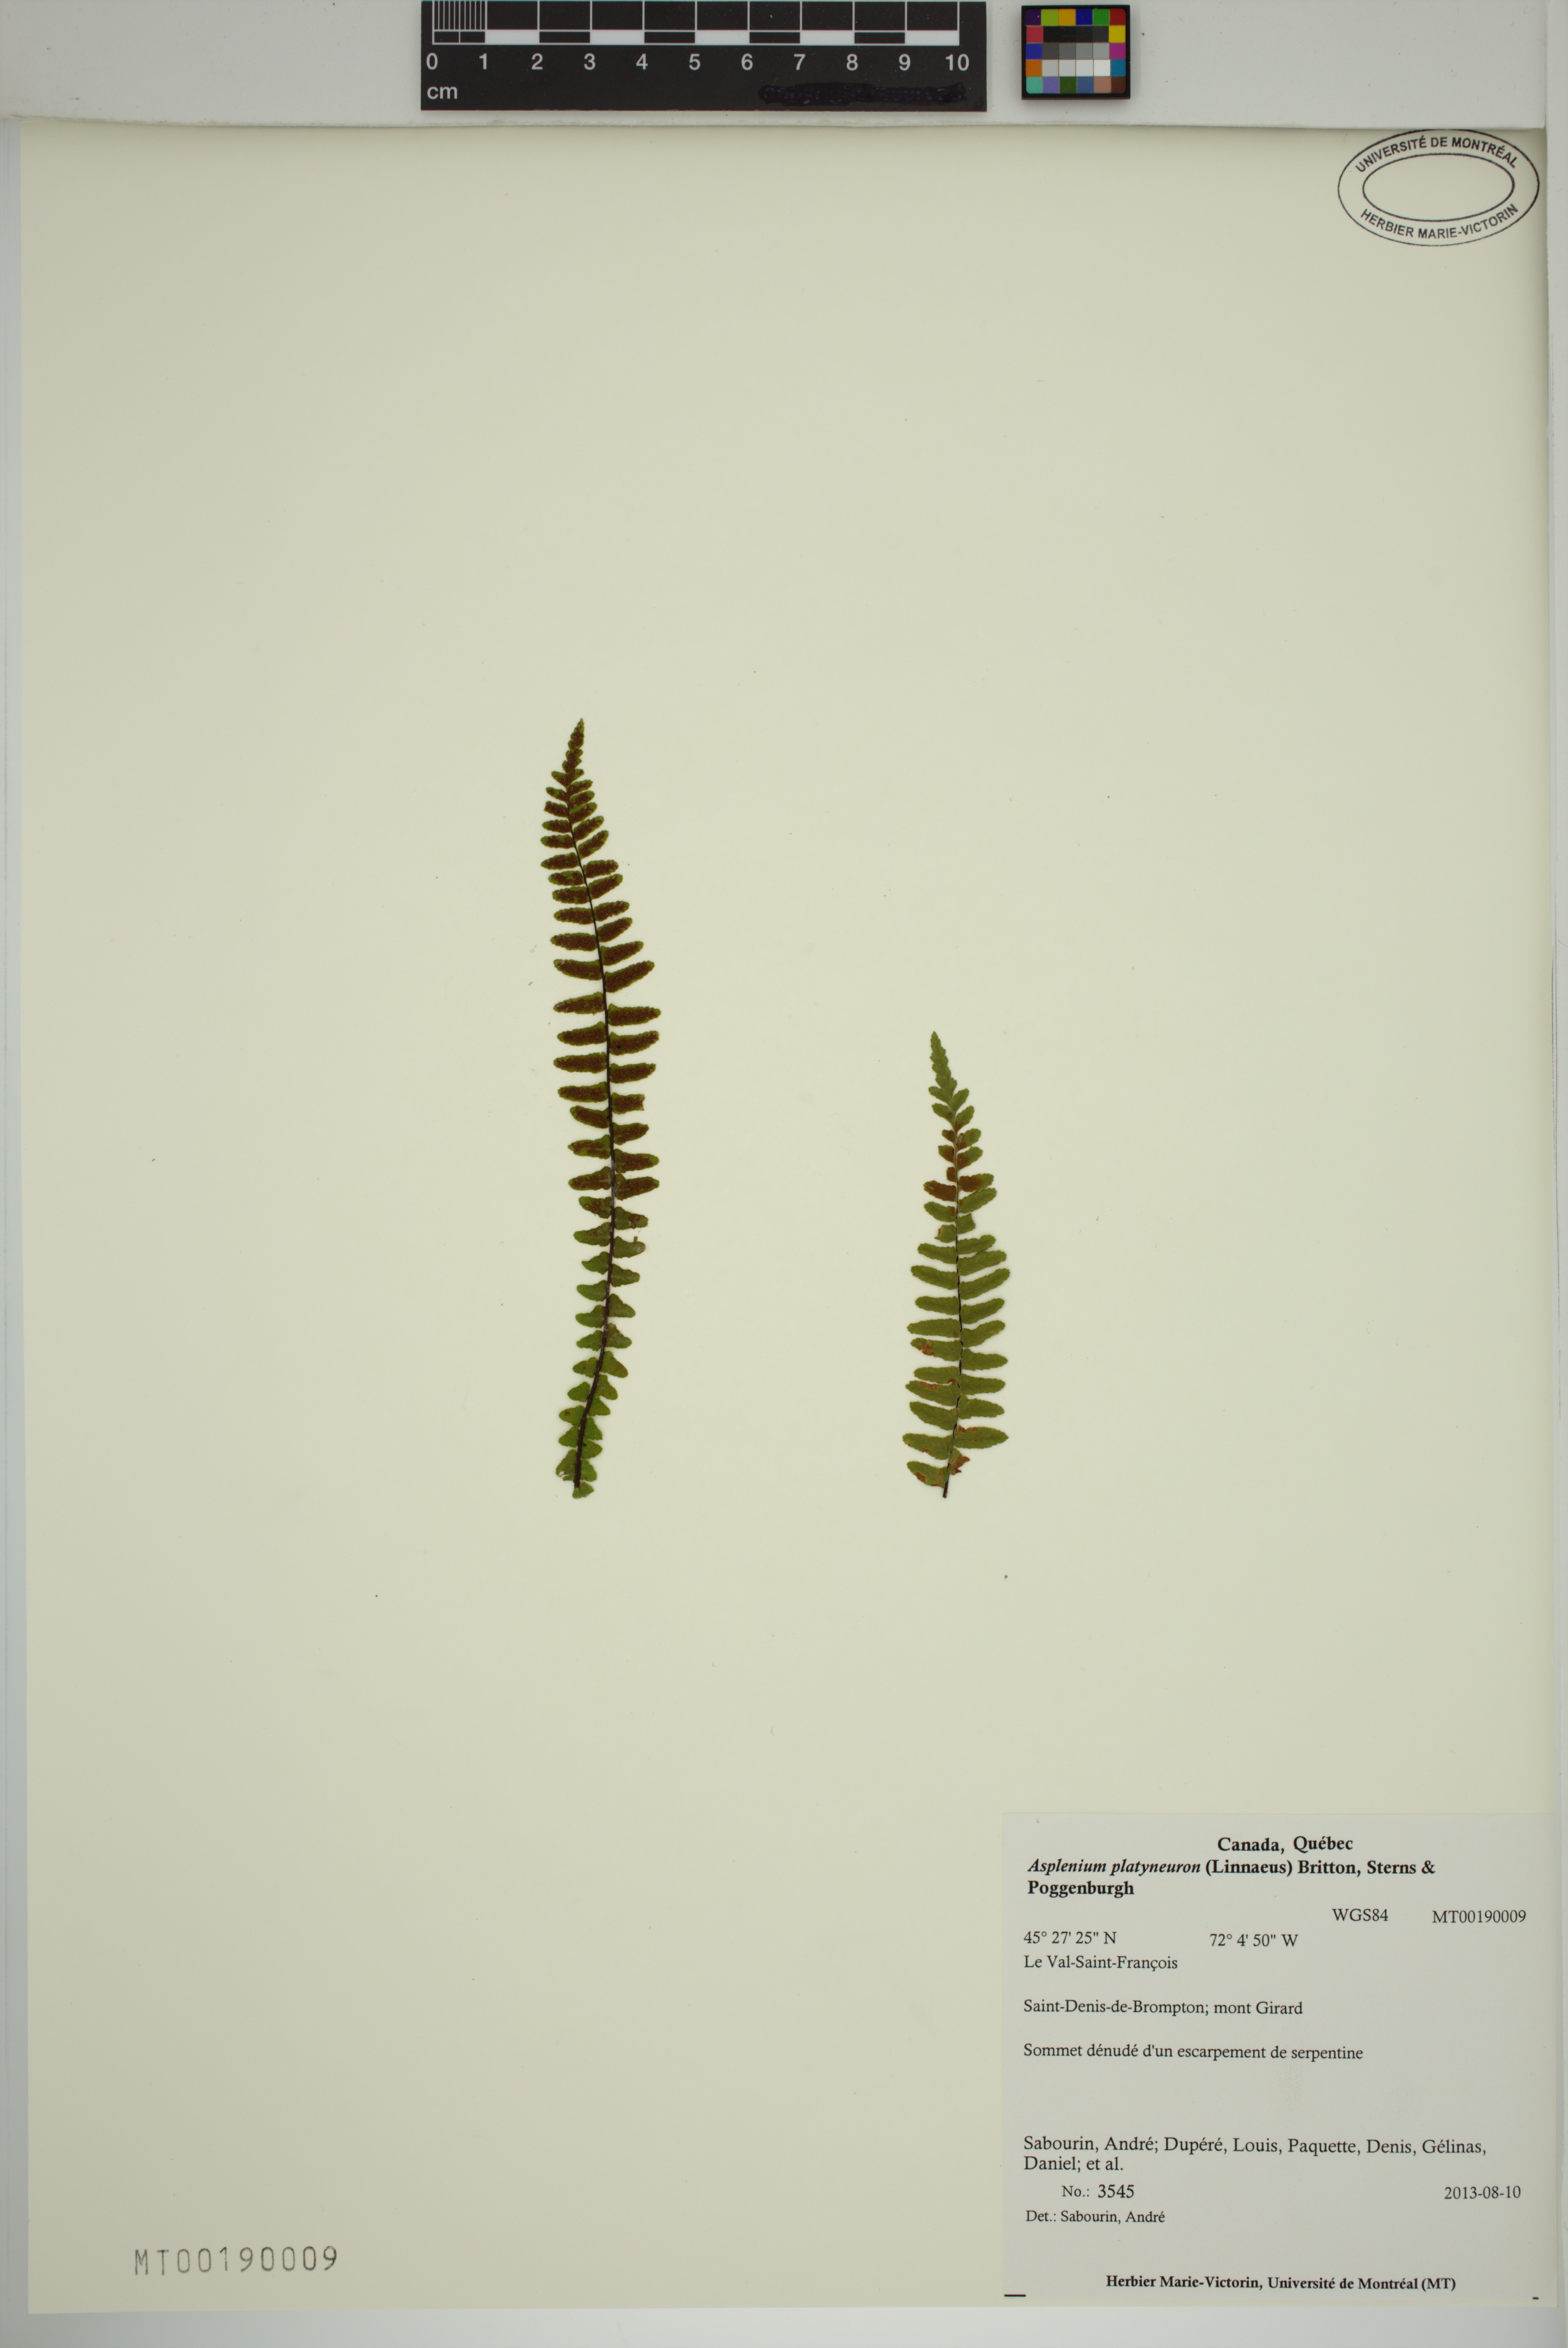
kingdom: Plantae
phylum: Tracheophyta
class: Polypodiopsida
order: Polypodiales
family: Aspleniaceae
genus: Asplenium
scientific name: Asplenium platyneuron
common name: Ebony spleenwort
